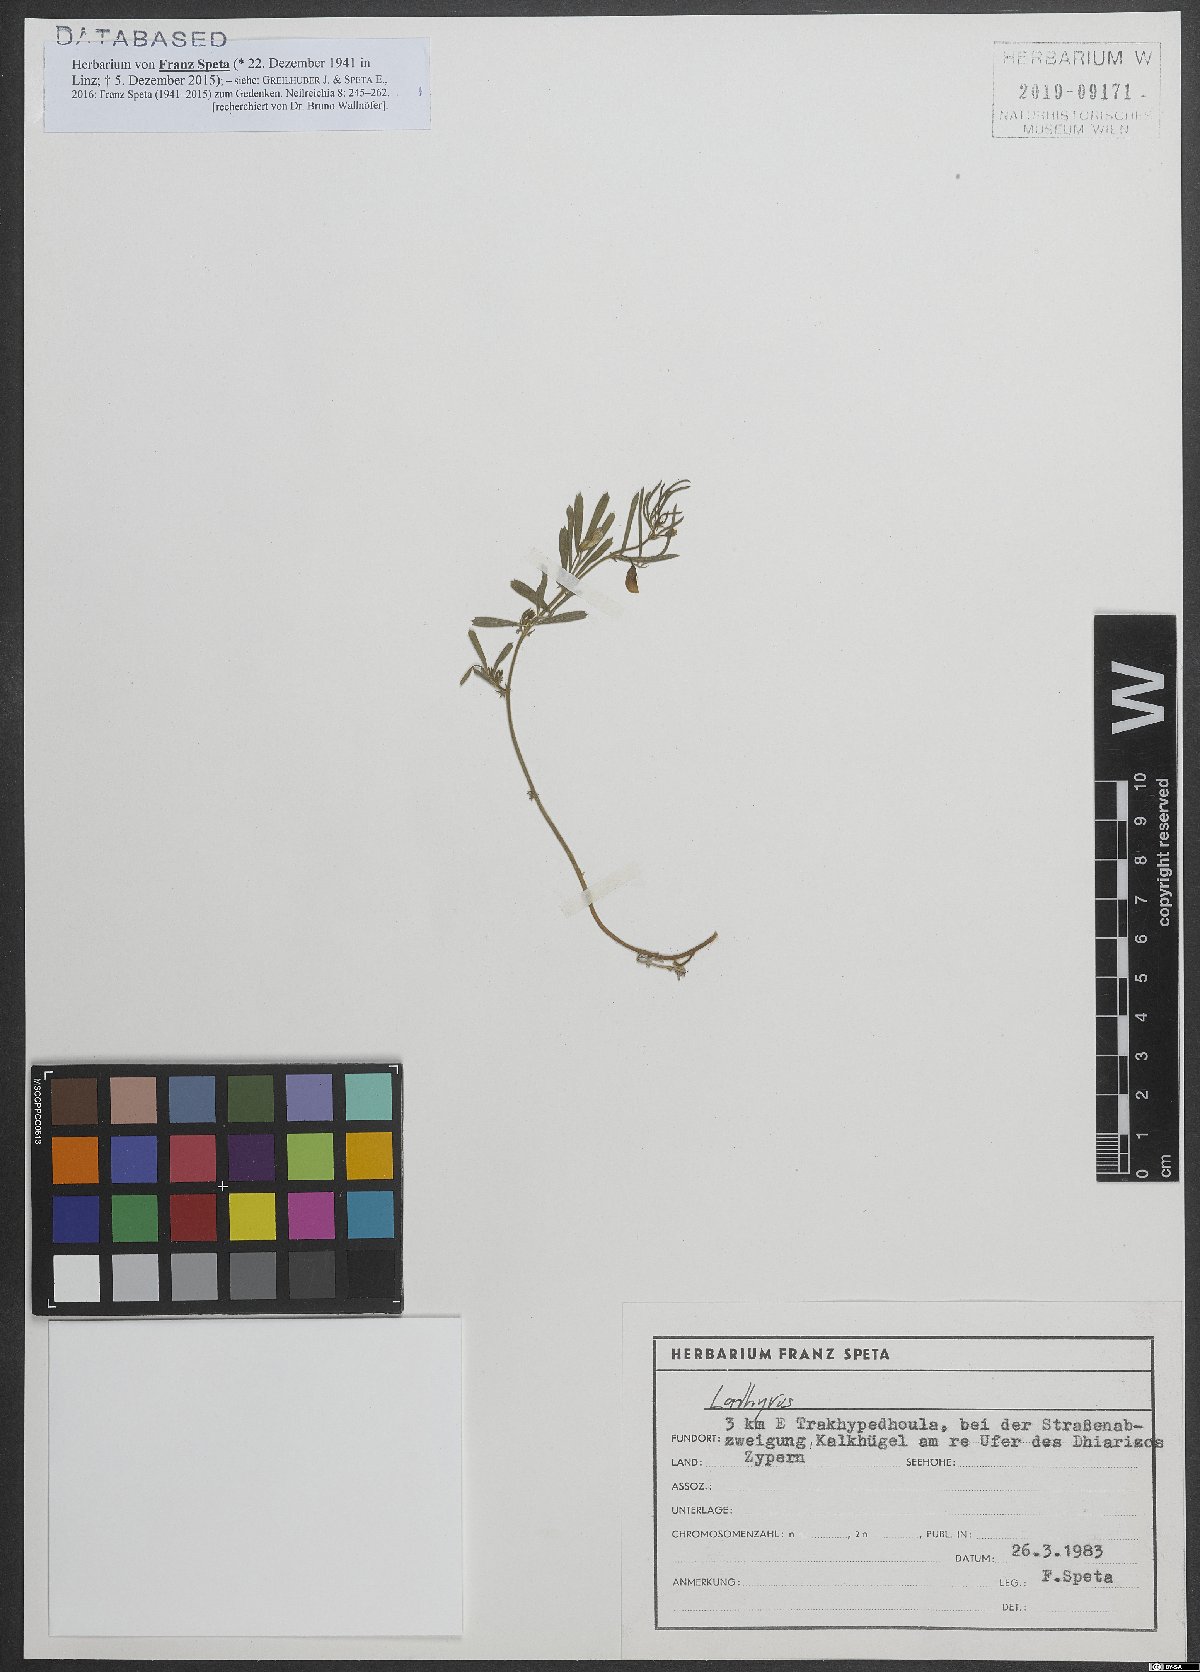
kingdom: Plantae
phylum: Tracheophyta
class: Magnoliopsida
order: Malpighiales
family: Euphorbiaceae
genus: Euphorbia
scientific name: Euphorbia
